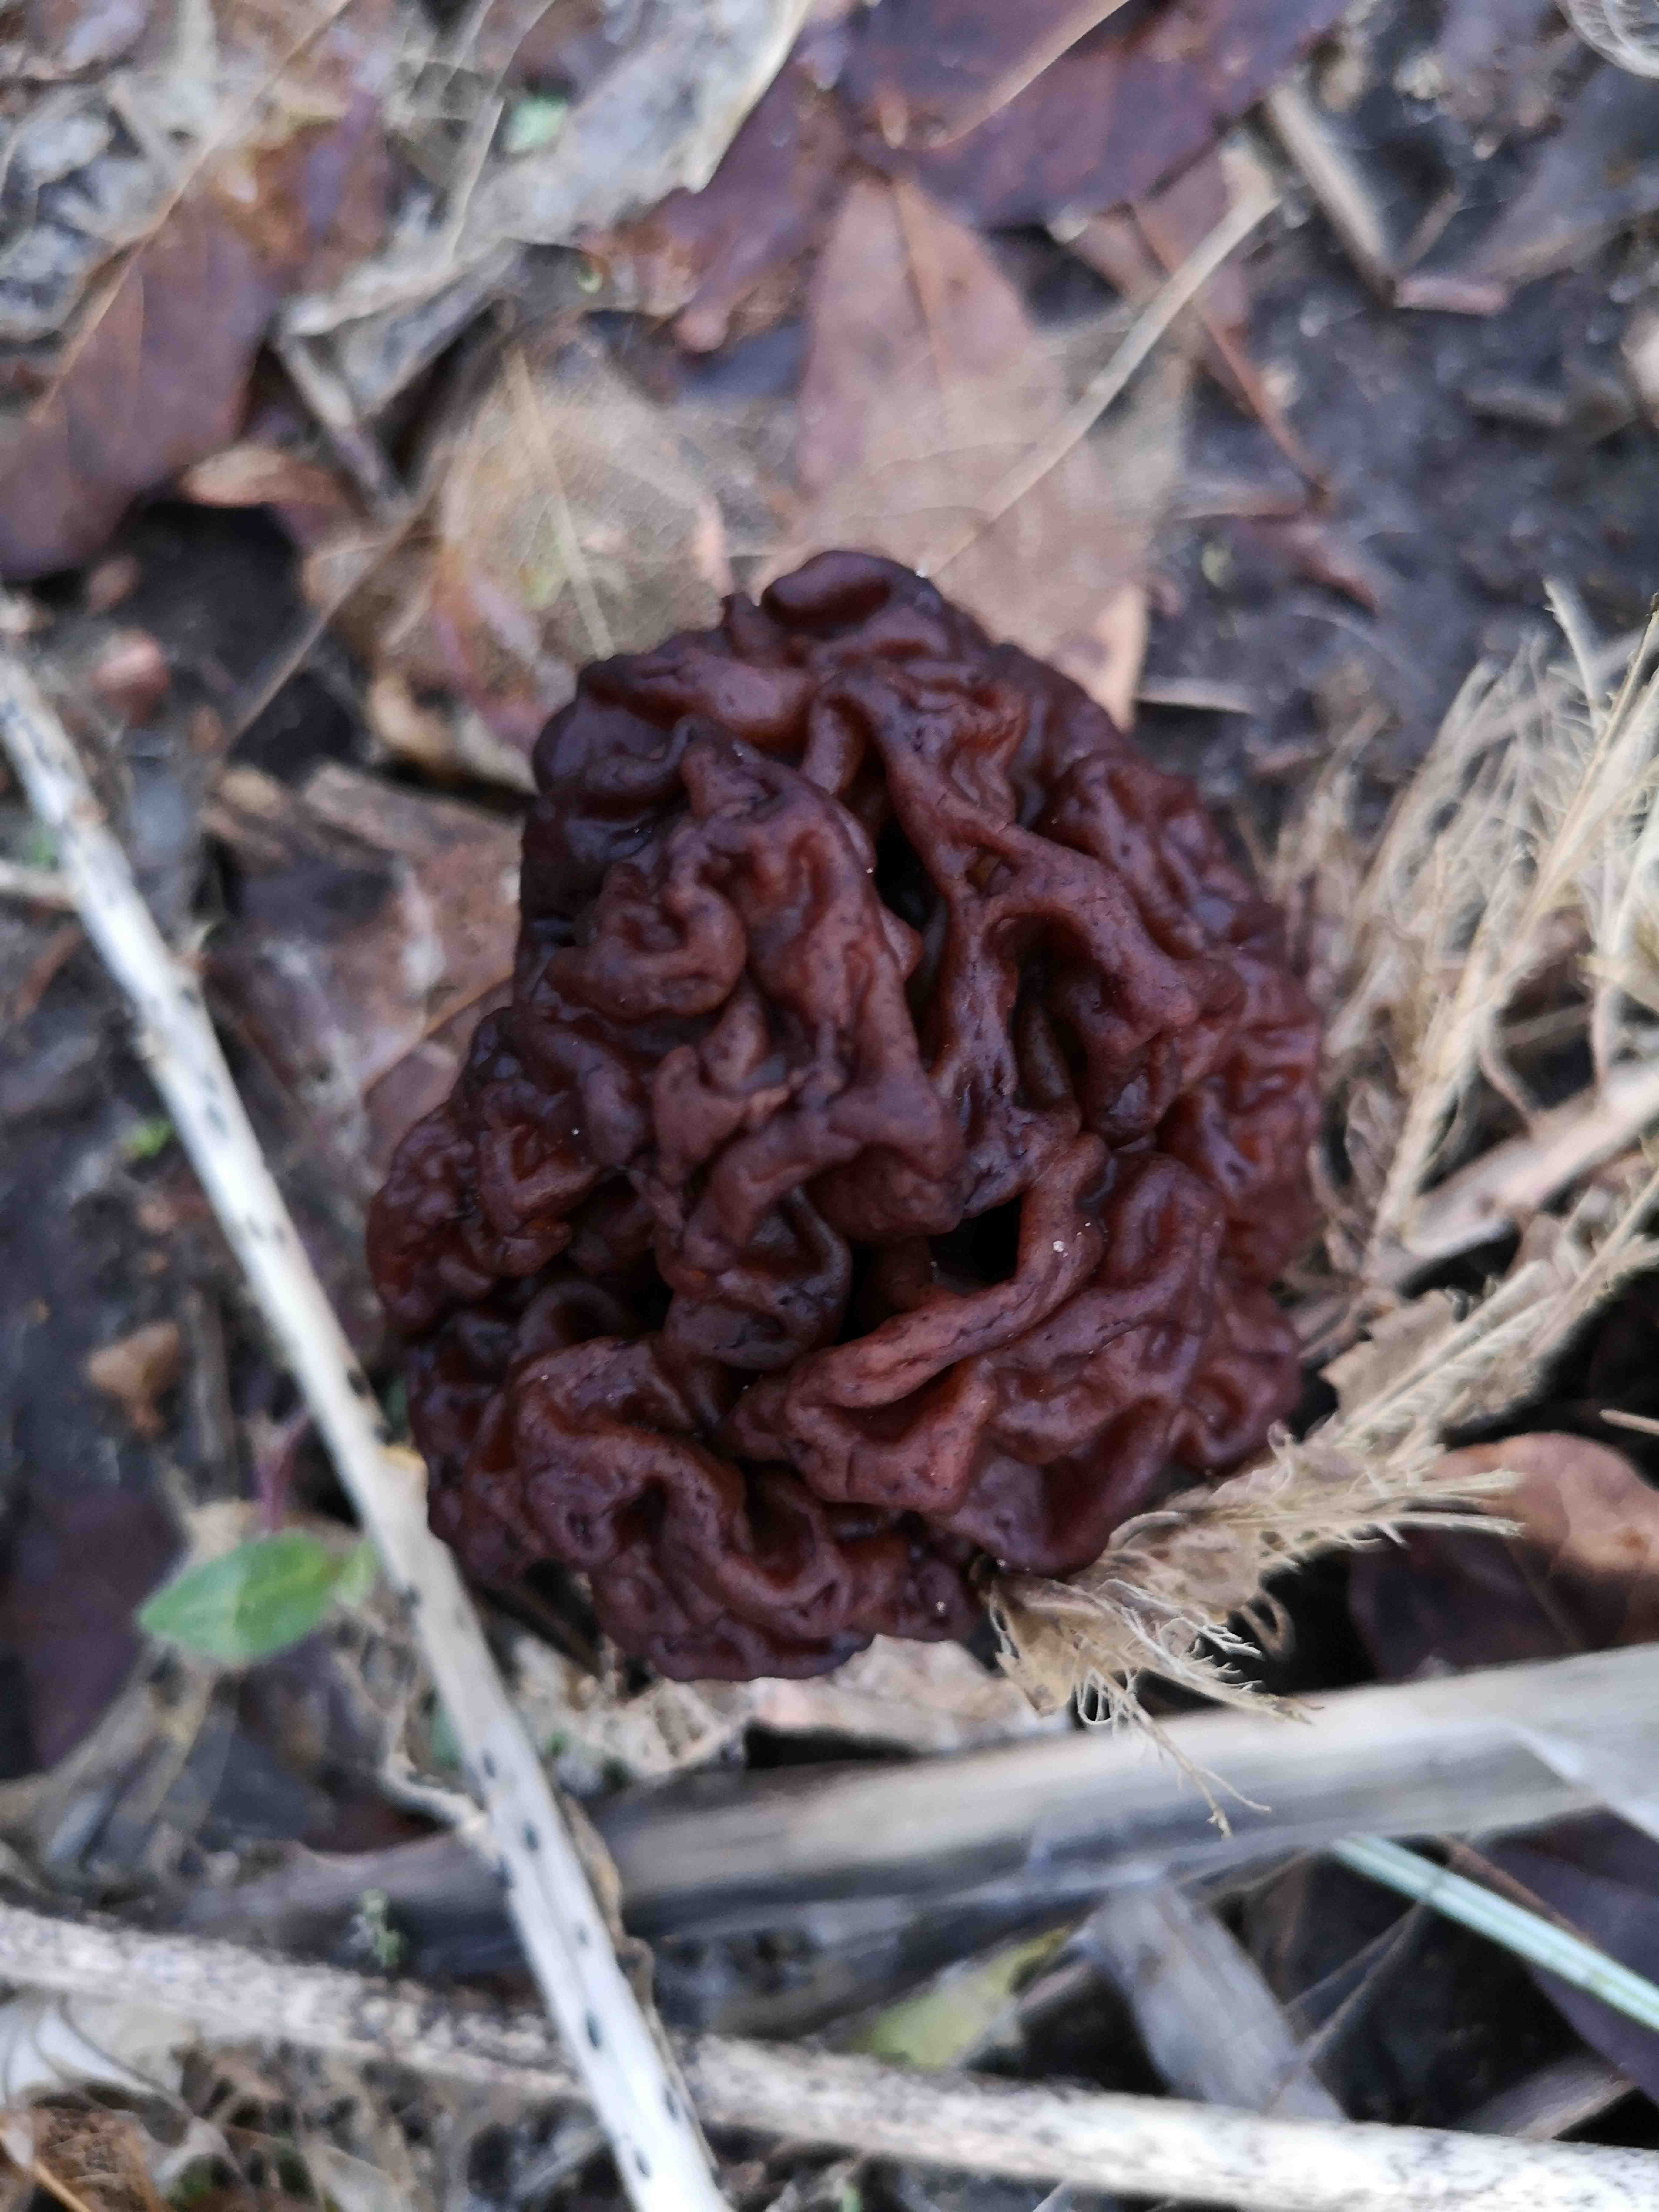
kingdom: Fungi
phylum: Ascomycota
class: Pezizomycetes
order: Pezizales
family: Discinaceae
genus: Gyromitra
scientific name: Gyromitra esculenta
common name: ægte stenmorkel
